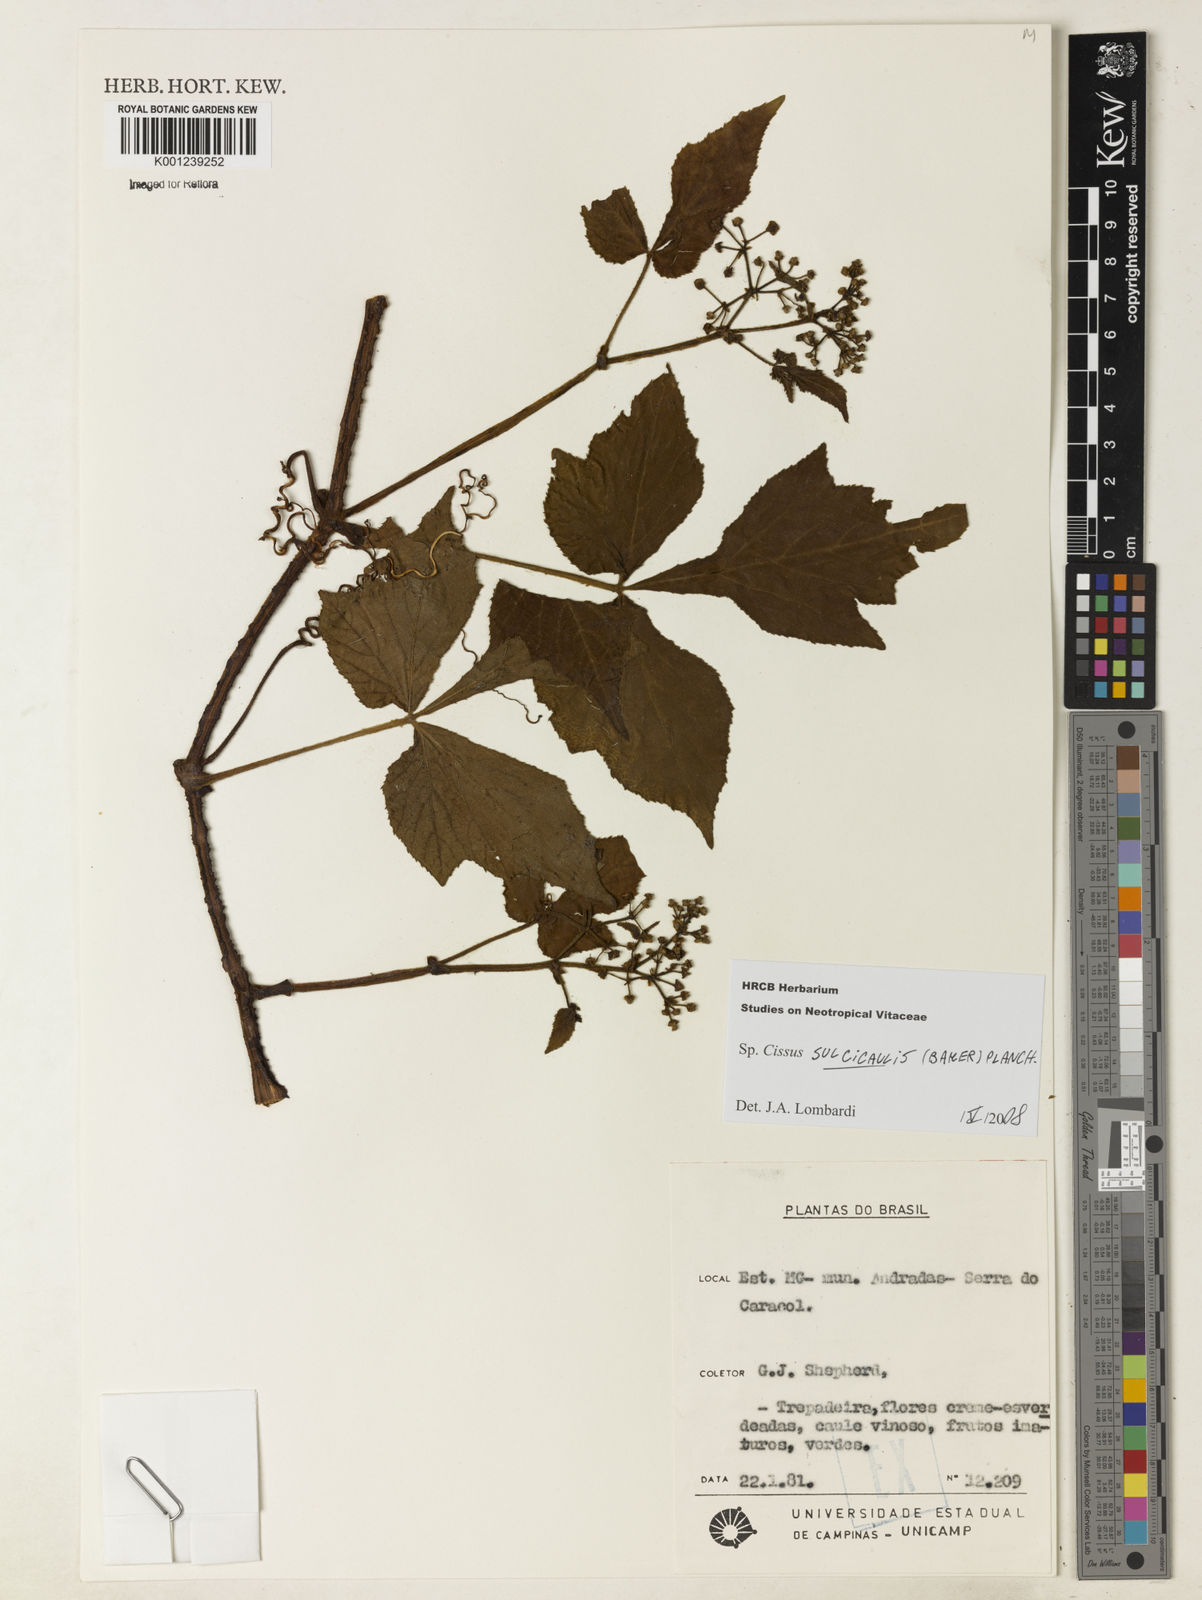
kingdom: Plantae
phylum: Tracheophyta
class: Magnoliopsida
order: Vitales
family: Vitaceae
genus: Cissus
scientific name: Cissus sulcicaulis
